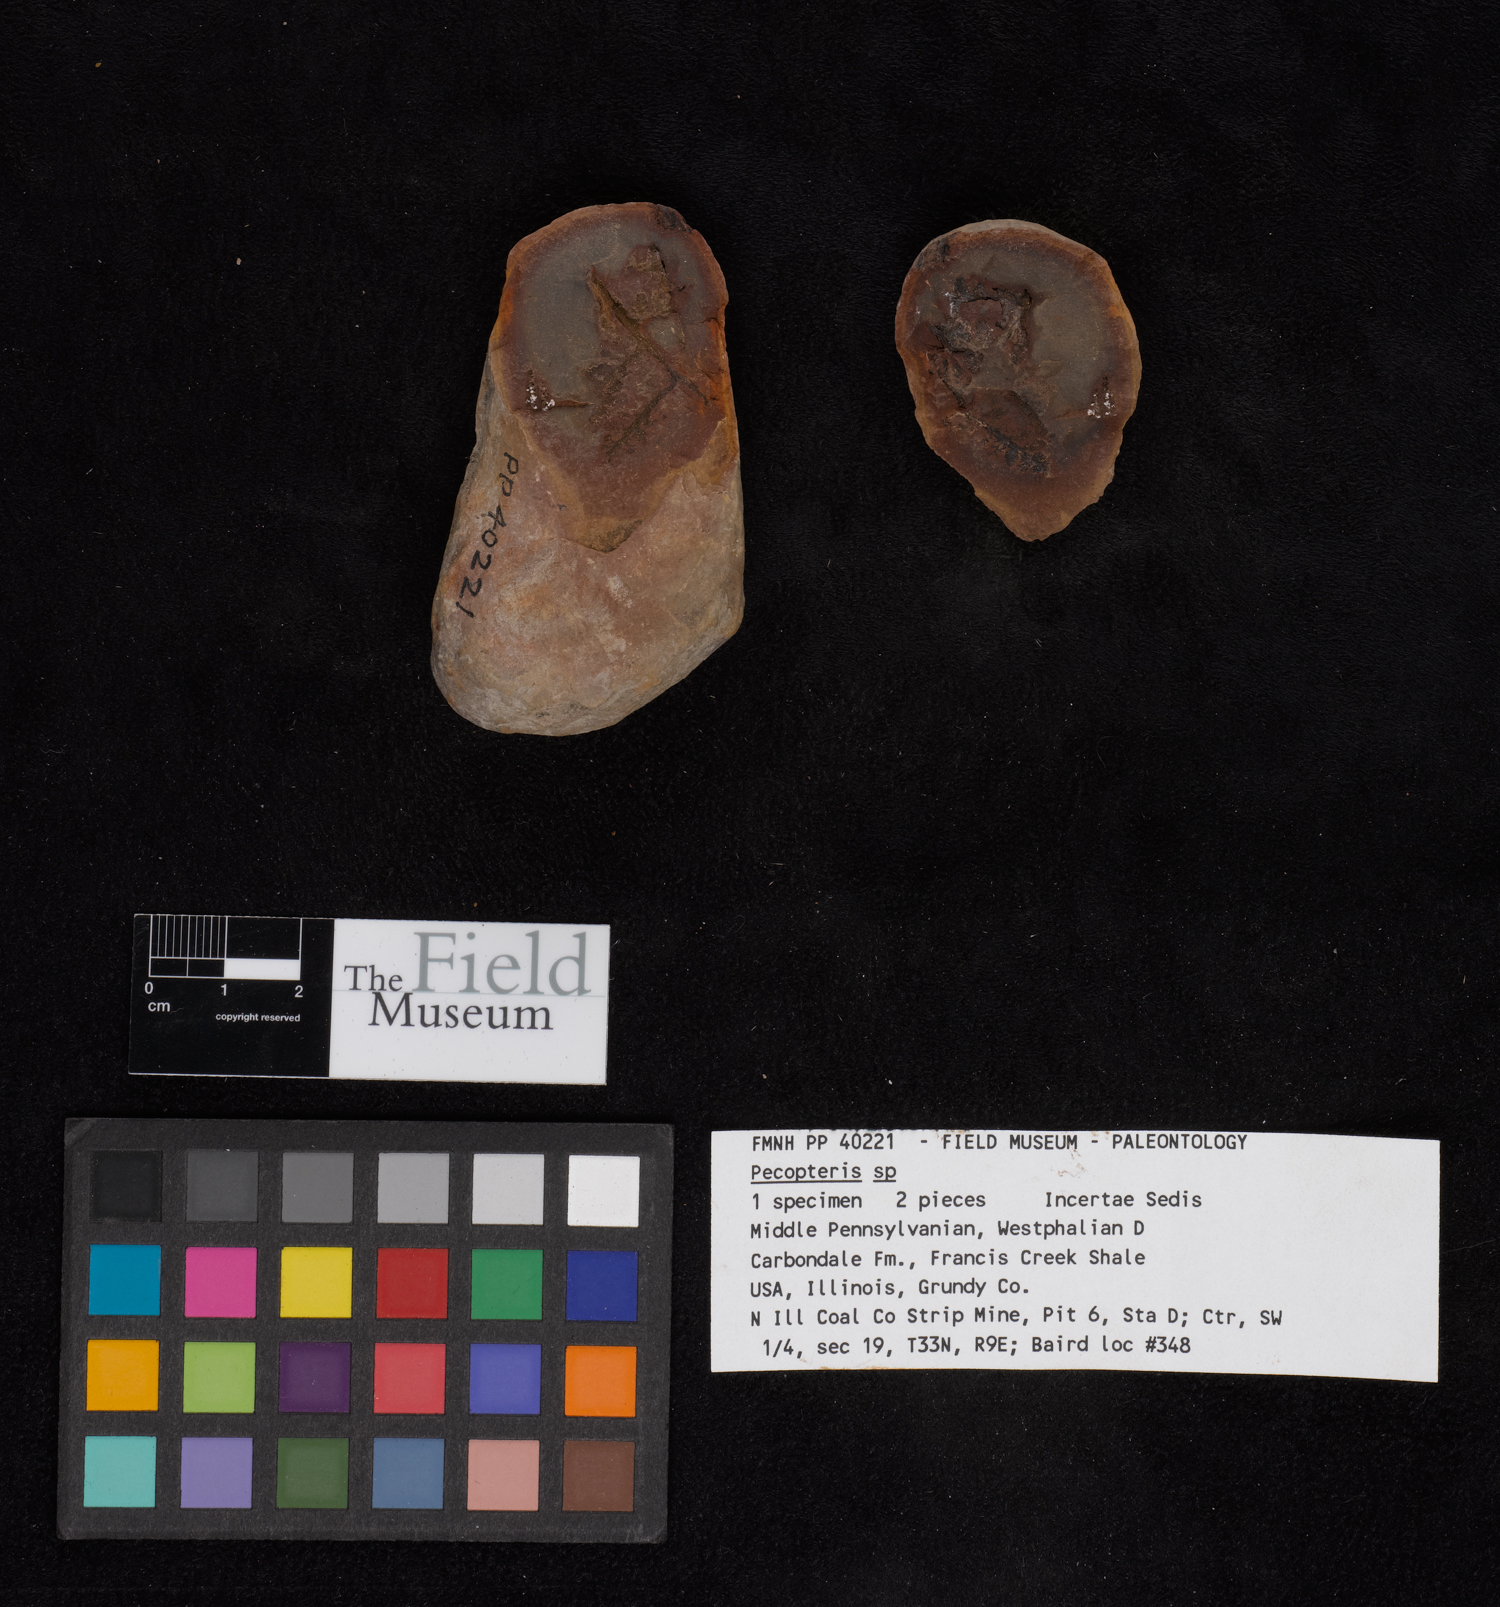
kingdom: Plantae
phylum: Tracheophyta
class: Polypodiopsida
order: Marattiales
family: Asterothecaceae
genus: Pecopteris
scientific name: Pecopteris
